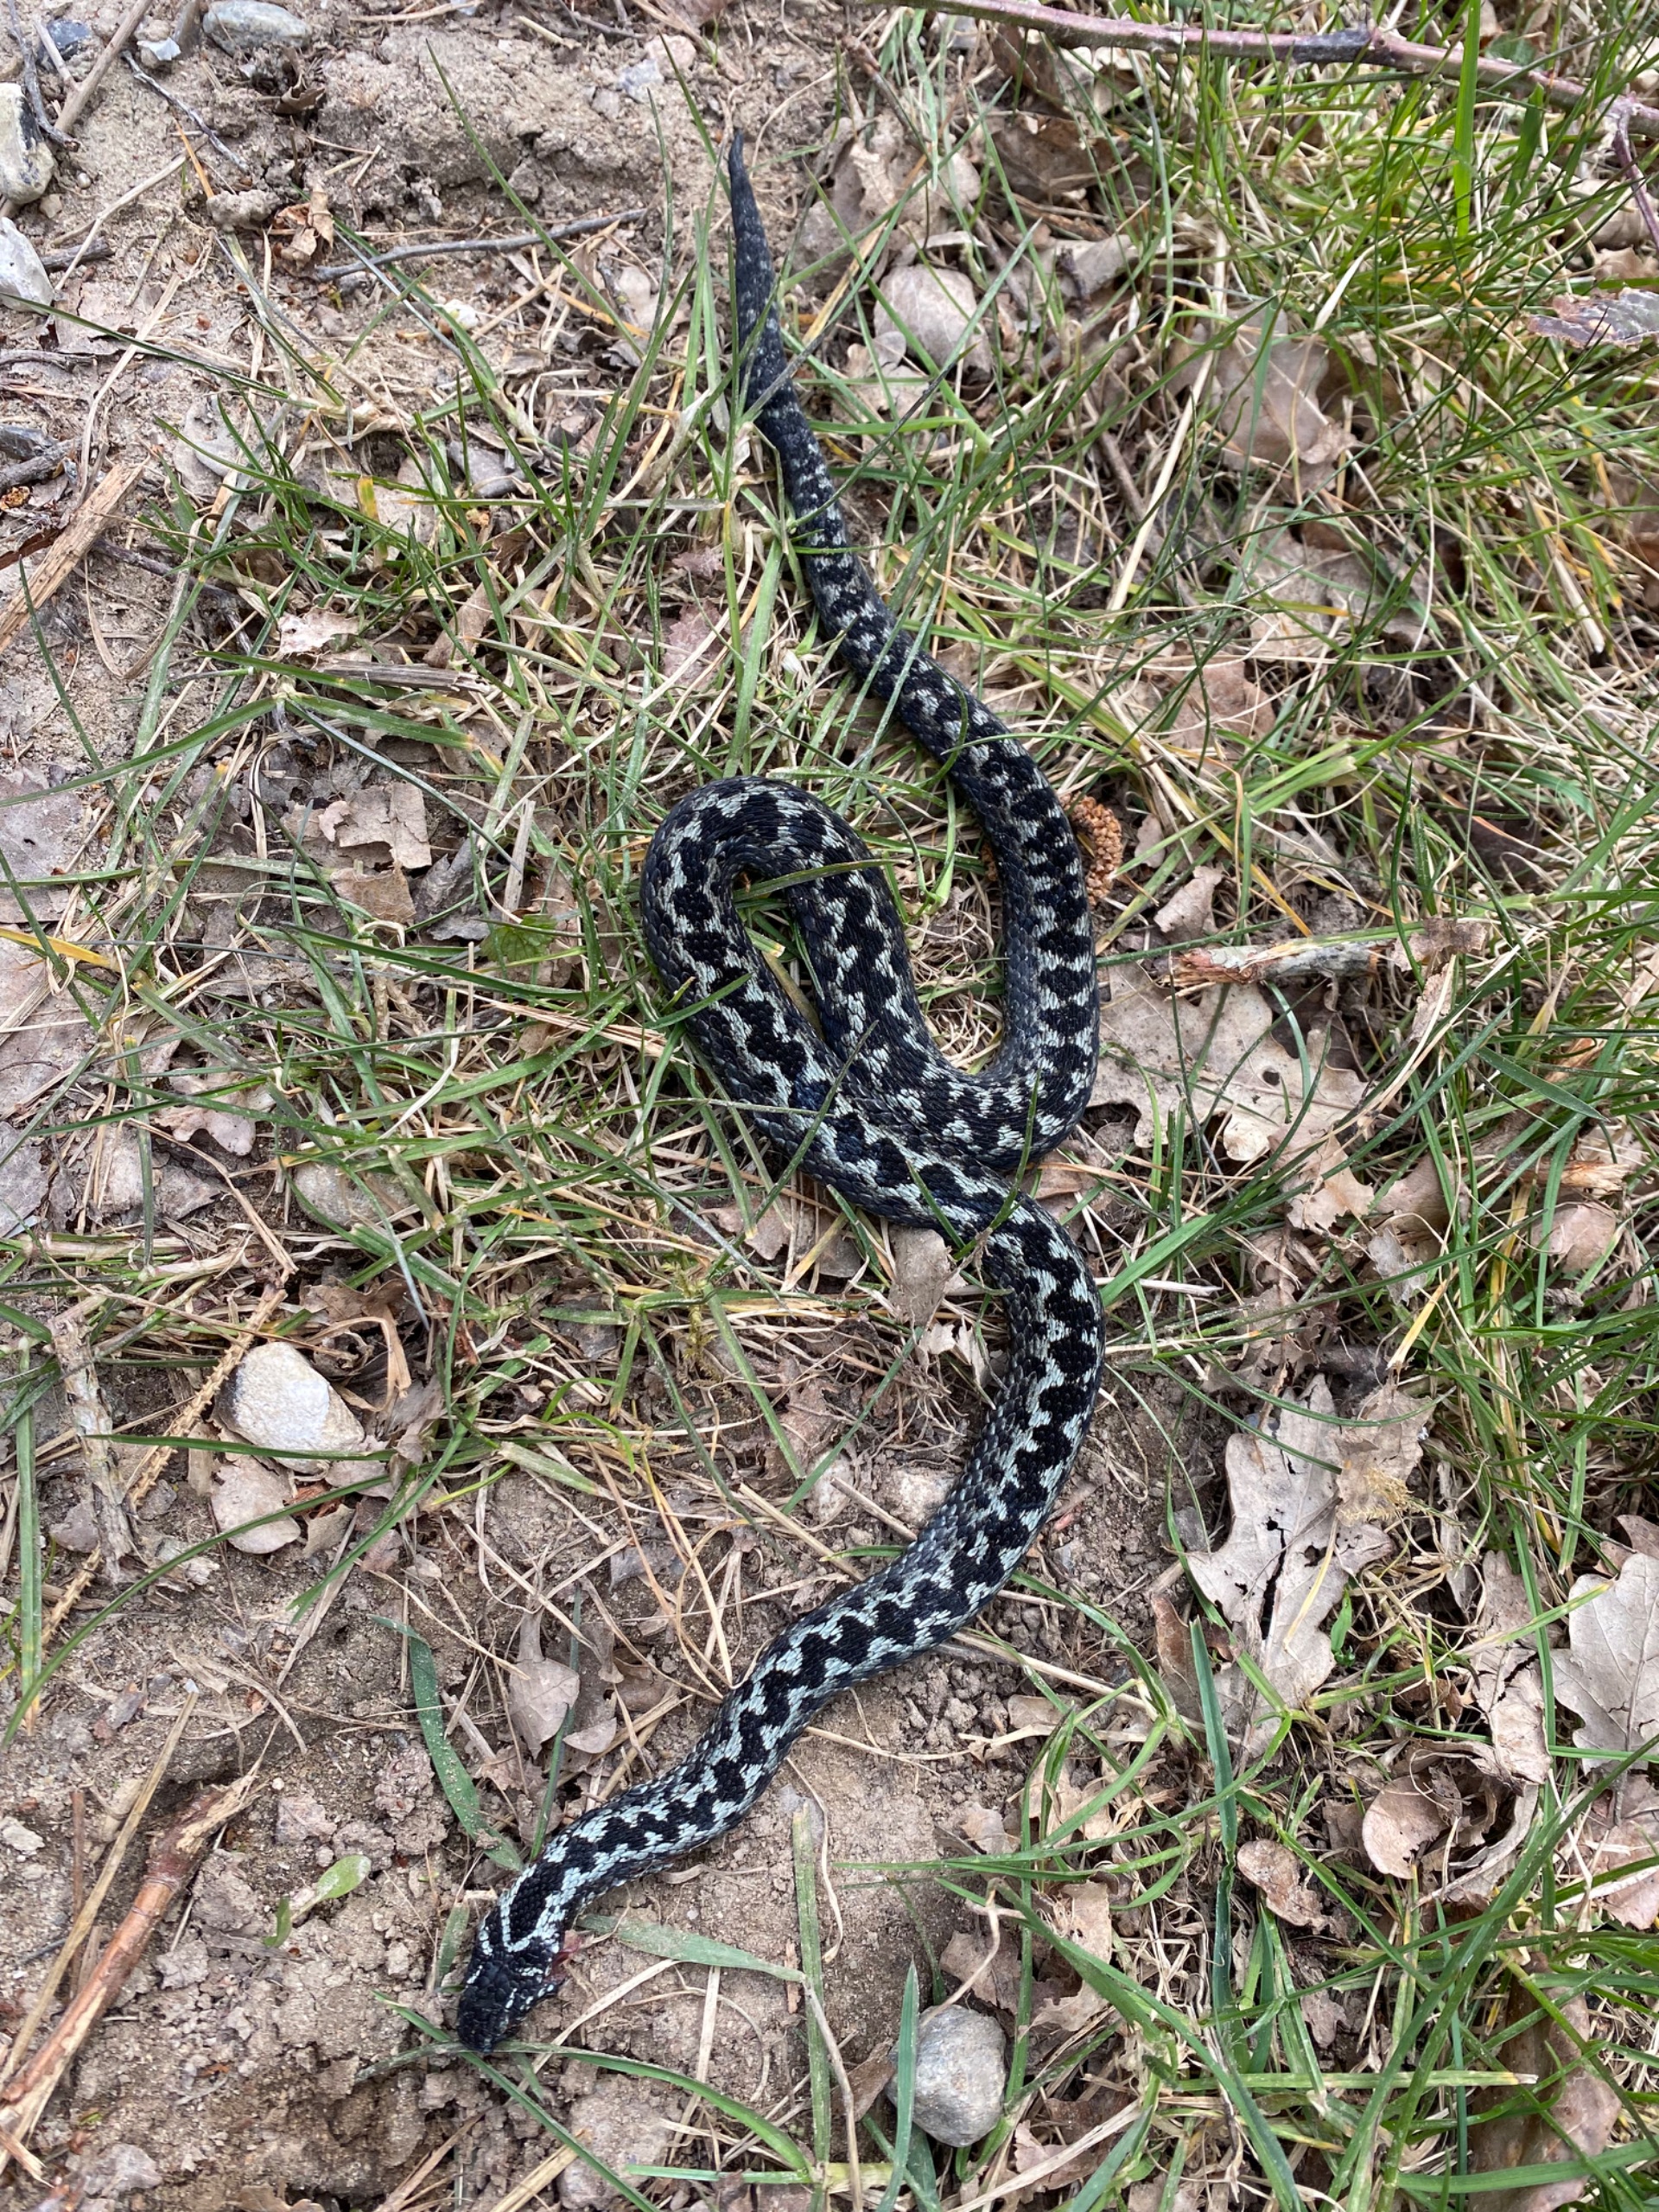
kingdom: Animalia
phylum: Chordata
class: Squamata
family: Viperidae
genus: Vipera
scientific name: Vipera berus
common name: Hugorm
